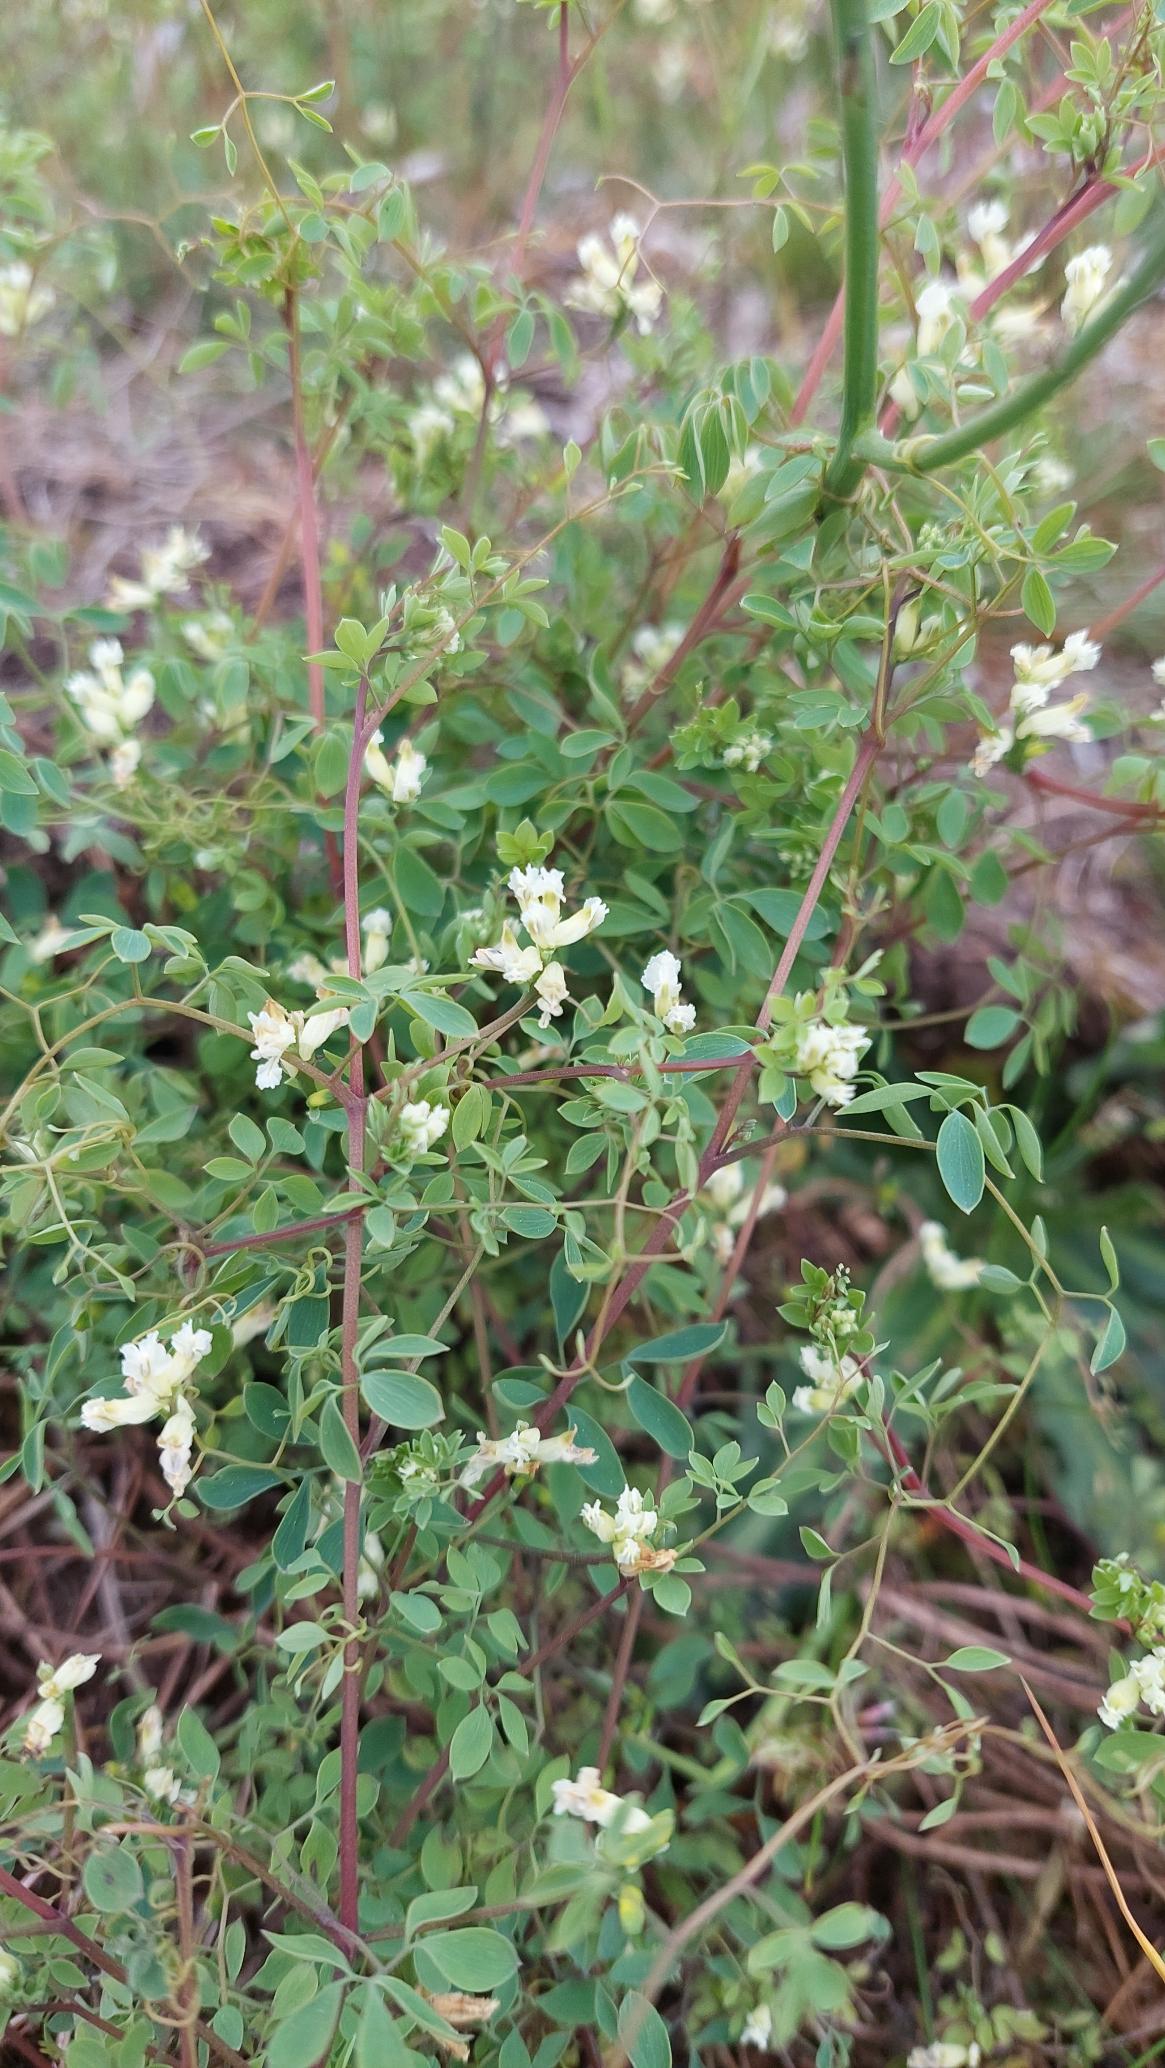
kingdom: Plantae
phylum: Tracheophyta
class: Magnoliopsida
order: Ranunculales
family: Papaveraceae
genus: Ceratocapnos
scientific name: Ceratocapnos claviculata
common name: Klatrende lærkespore
